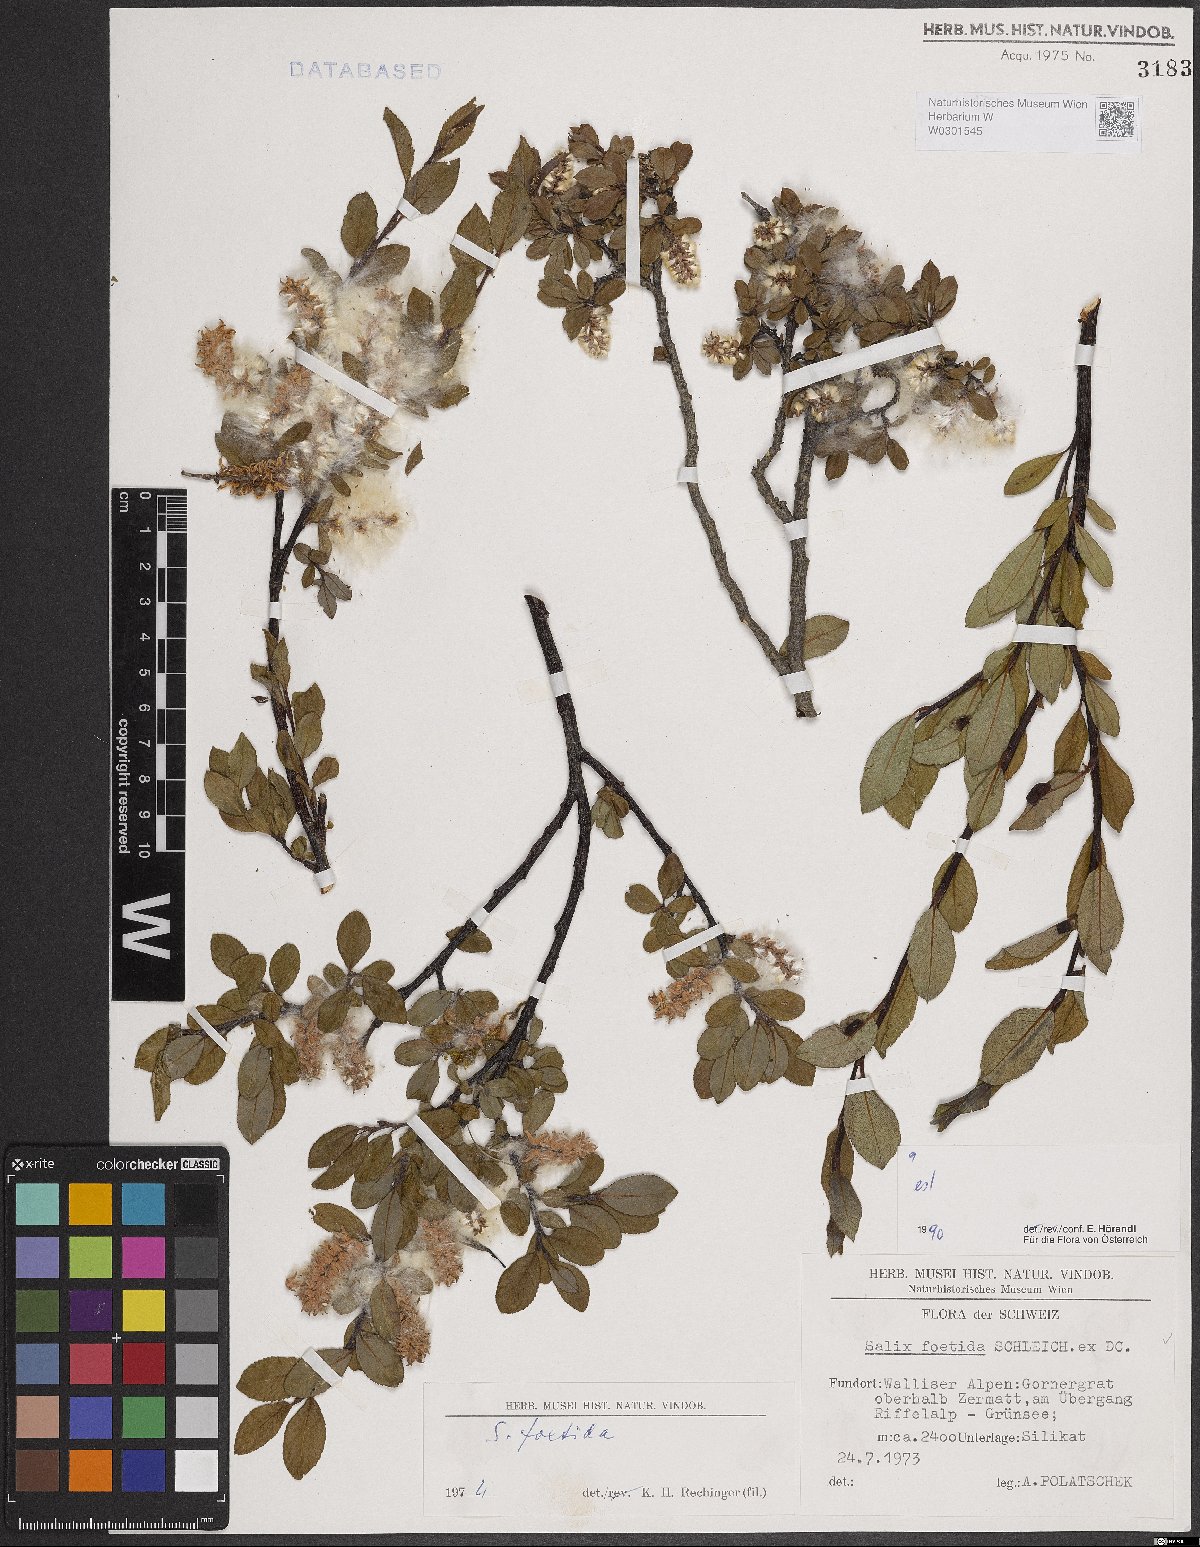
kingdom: Plantae
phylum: Tracheophyta
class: Magnoliopsida
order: Malpighiales
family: Salicaceae
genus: Salix
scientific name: Salix foetida
